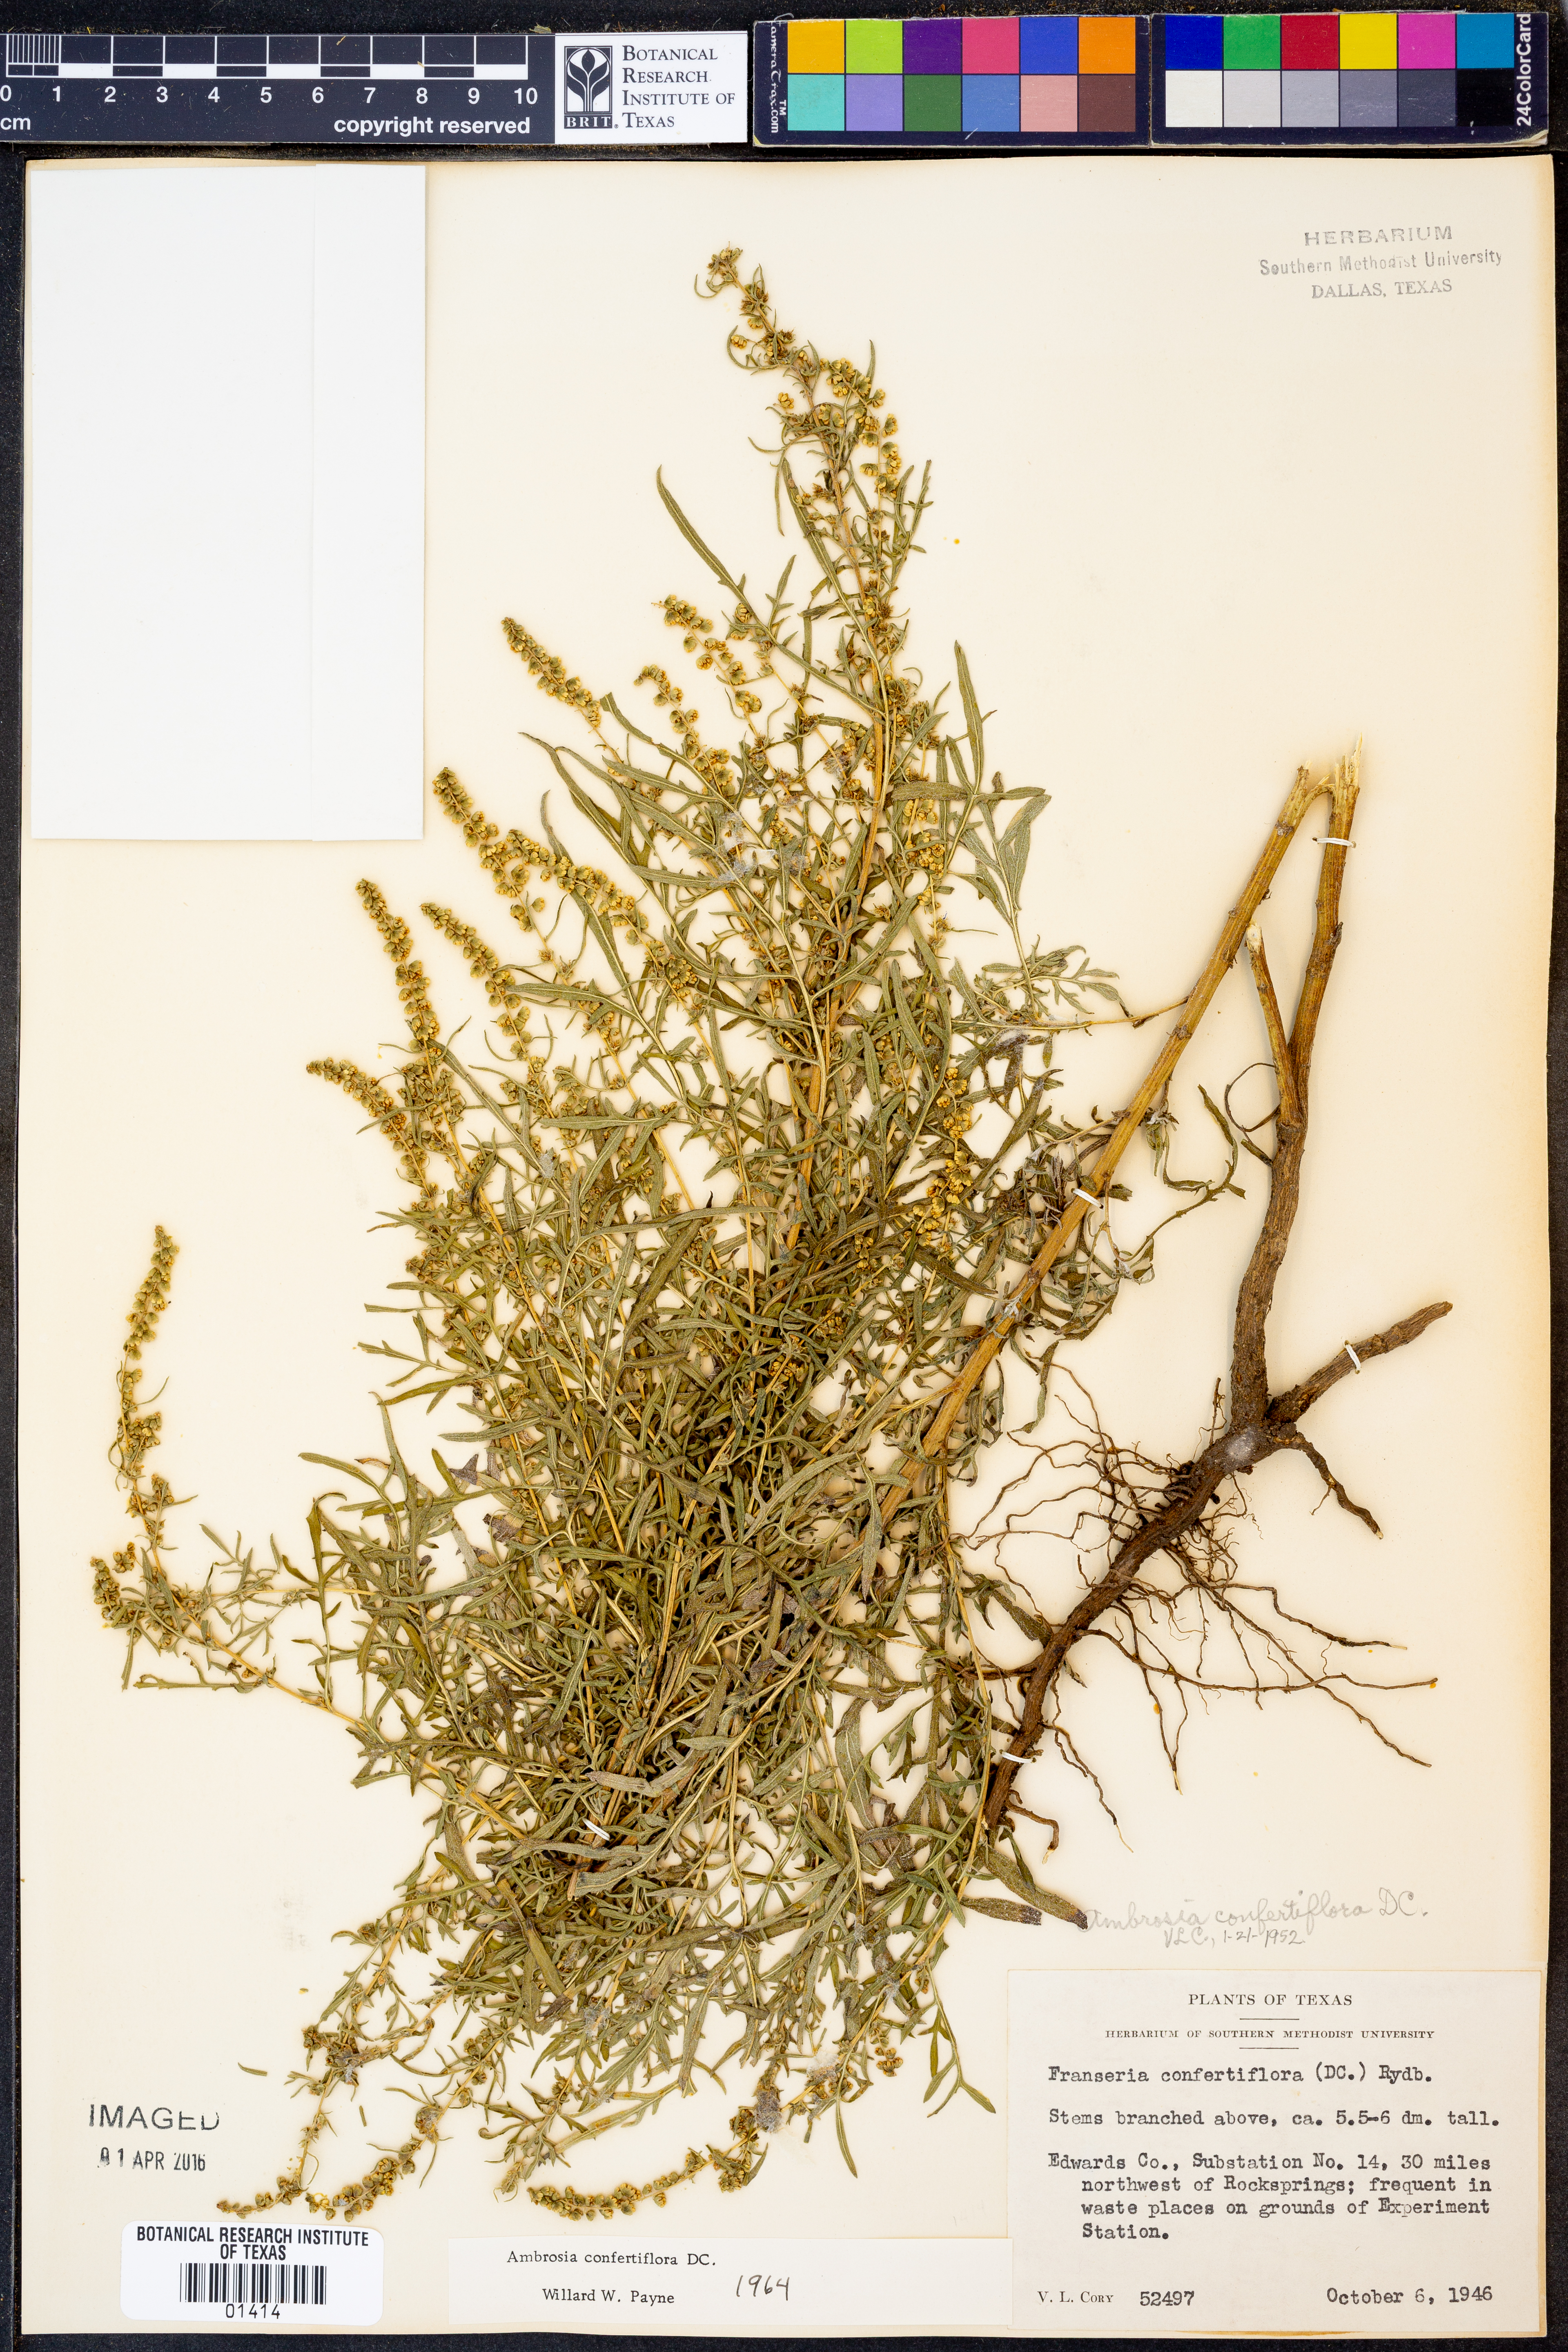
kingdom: Plantae
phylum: Tracheophyta
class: Magnoliopsida
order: Asterales
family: Asteraceae
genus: Ambrosia
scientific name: Ambrosia confertiflora
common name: Bur ragweed
